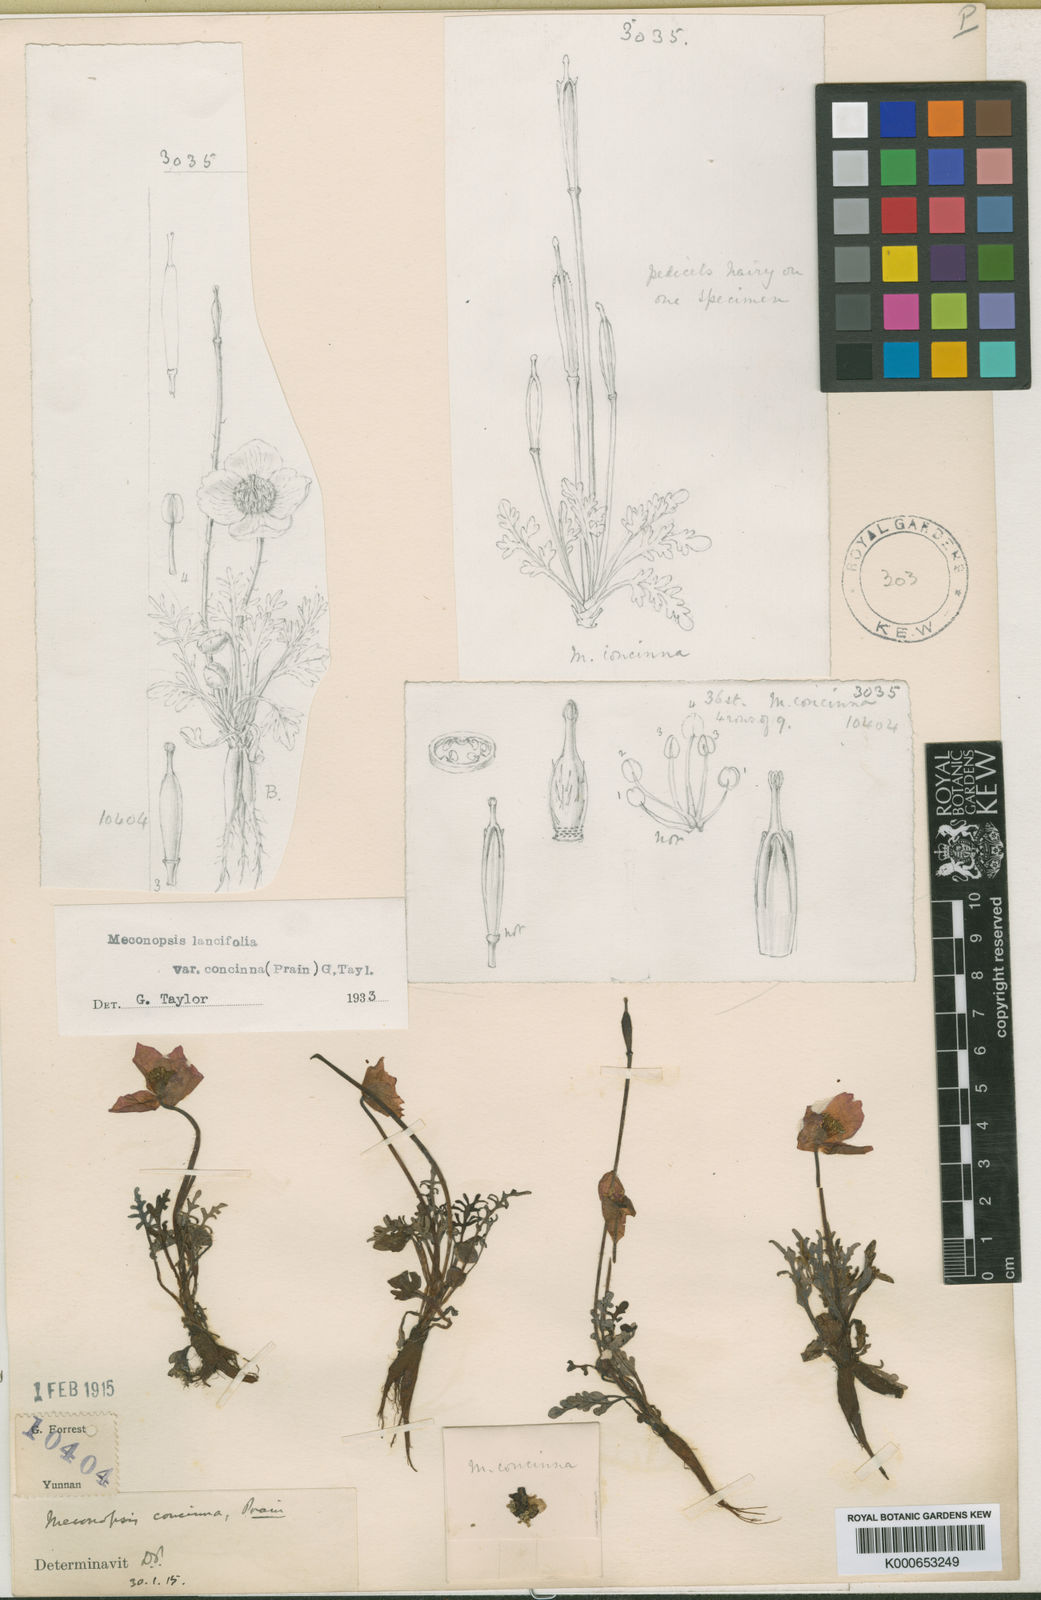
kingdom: Plantae
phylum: Tracheophyta
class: Magnoliopsida
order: Ranunculales
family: Papaveraceae
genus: Meconopsis
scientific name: Meconopsis lancifolia
